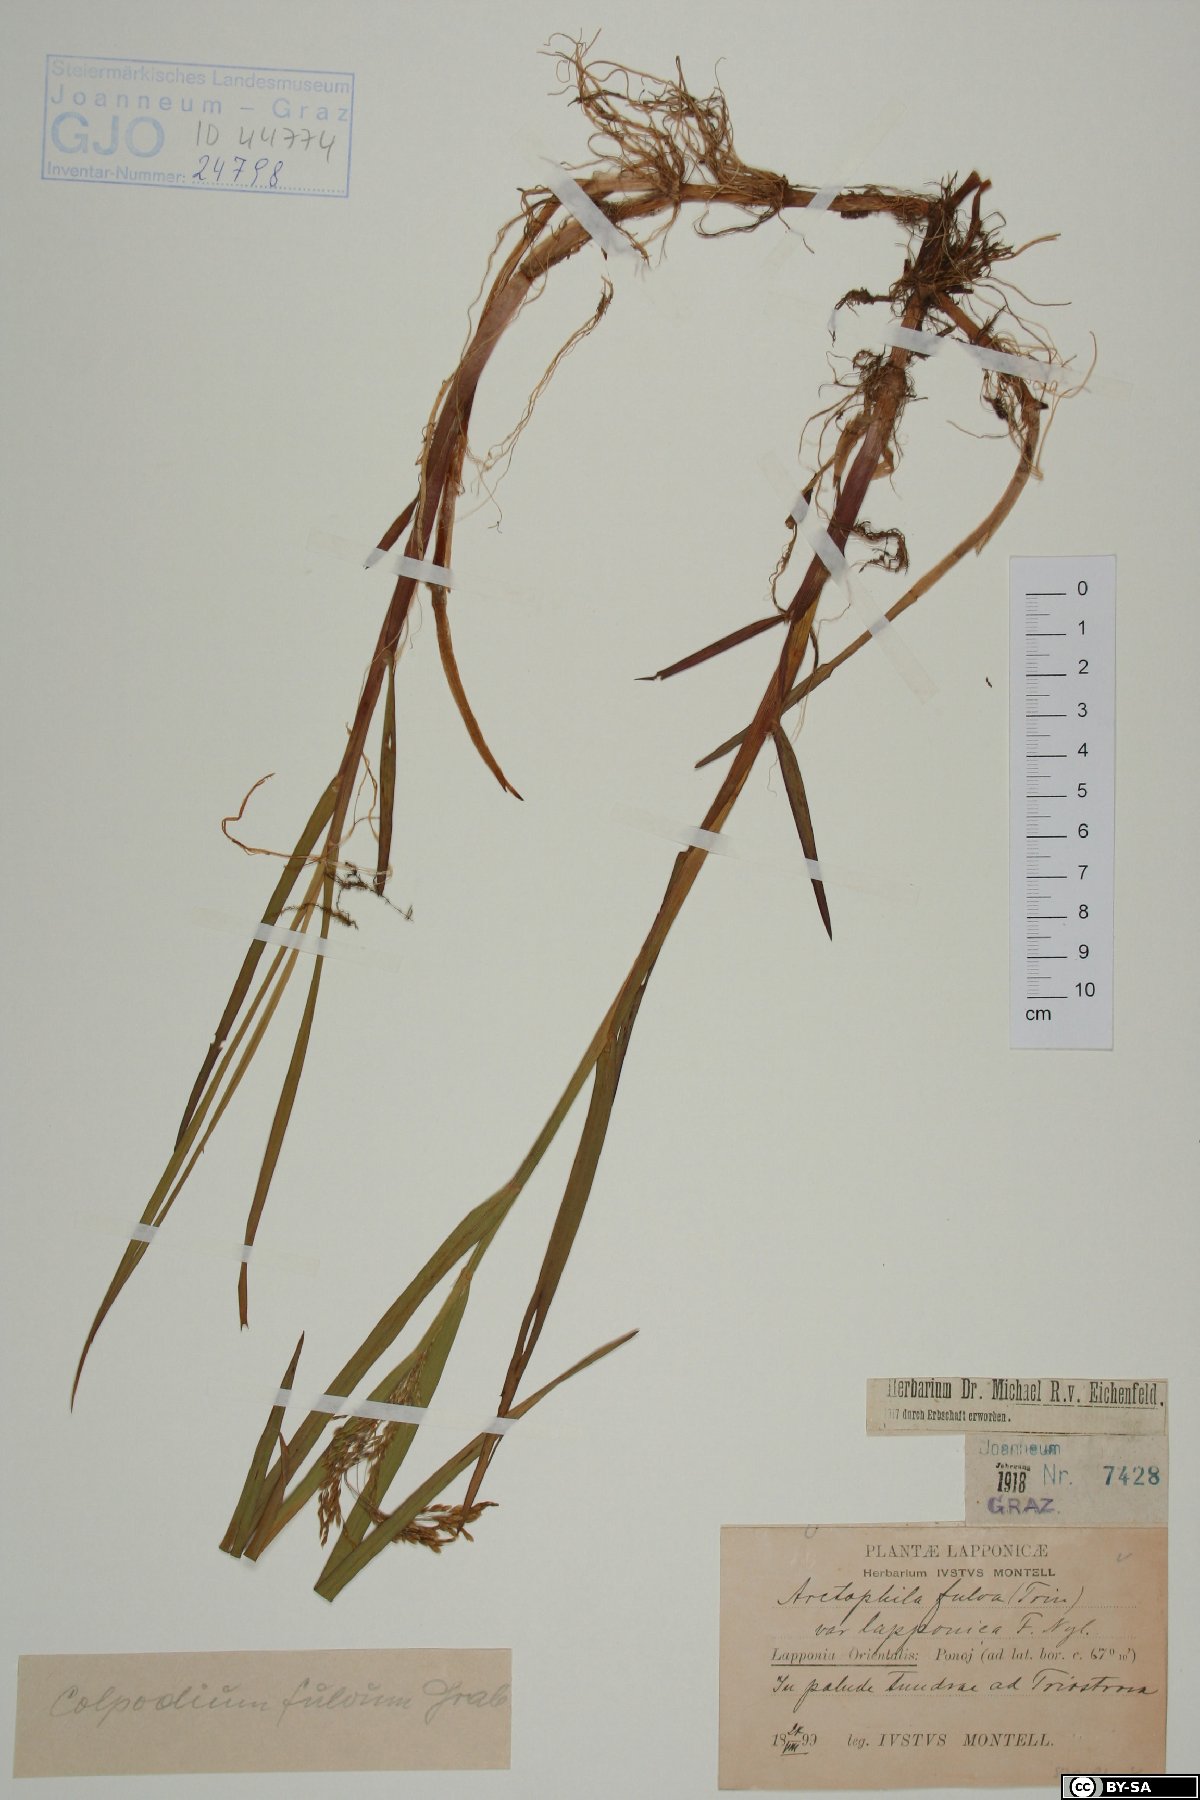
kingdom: Plantae
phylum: Tracheophyta
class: Liliopsida
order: Poales
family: Poaceae
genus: Dupontia
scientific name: Dupontia fulva
